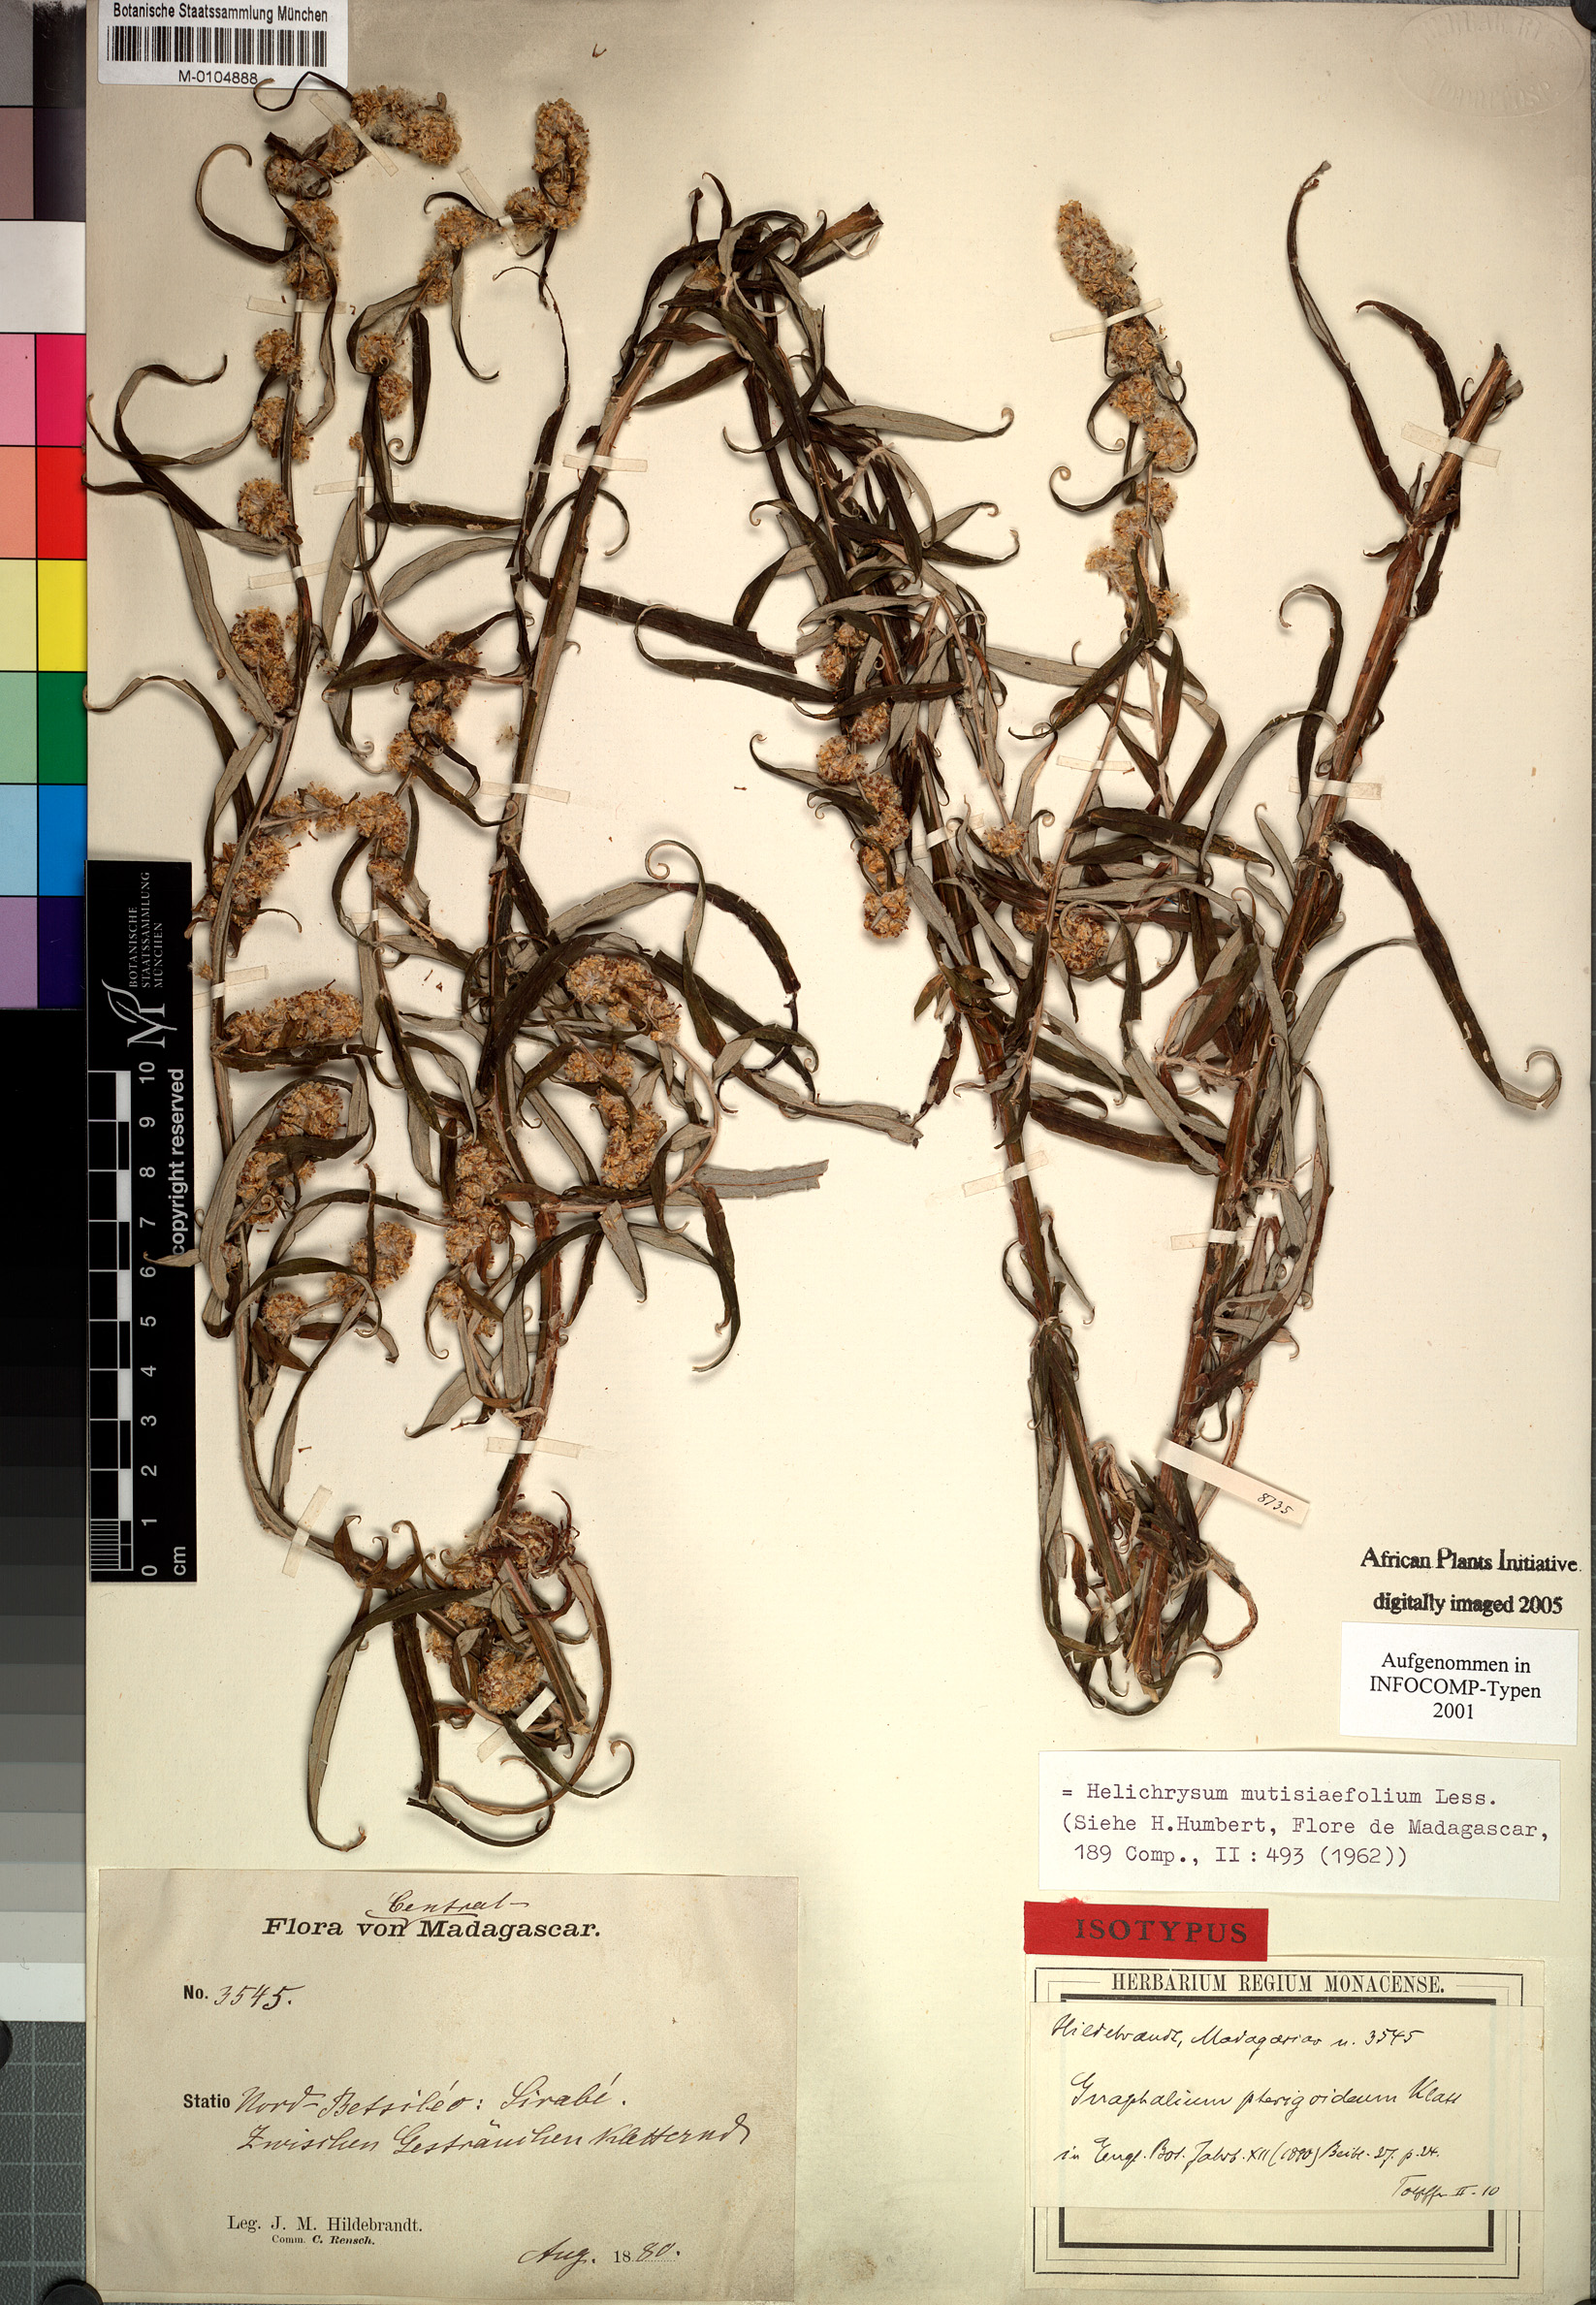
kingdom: Plantae
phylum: Tracheophyta
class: Magnoliopsida
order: Asterales
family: Asteraceae
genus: Helichrysum
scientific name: Helichrysum mutisiaefolium
